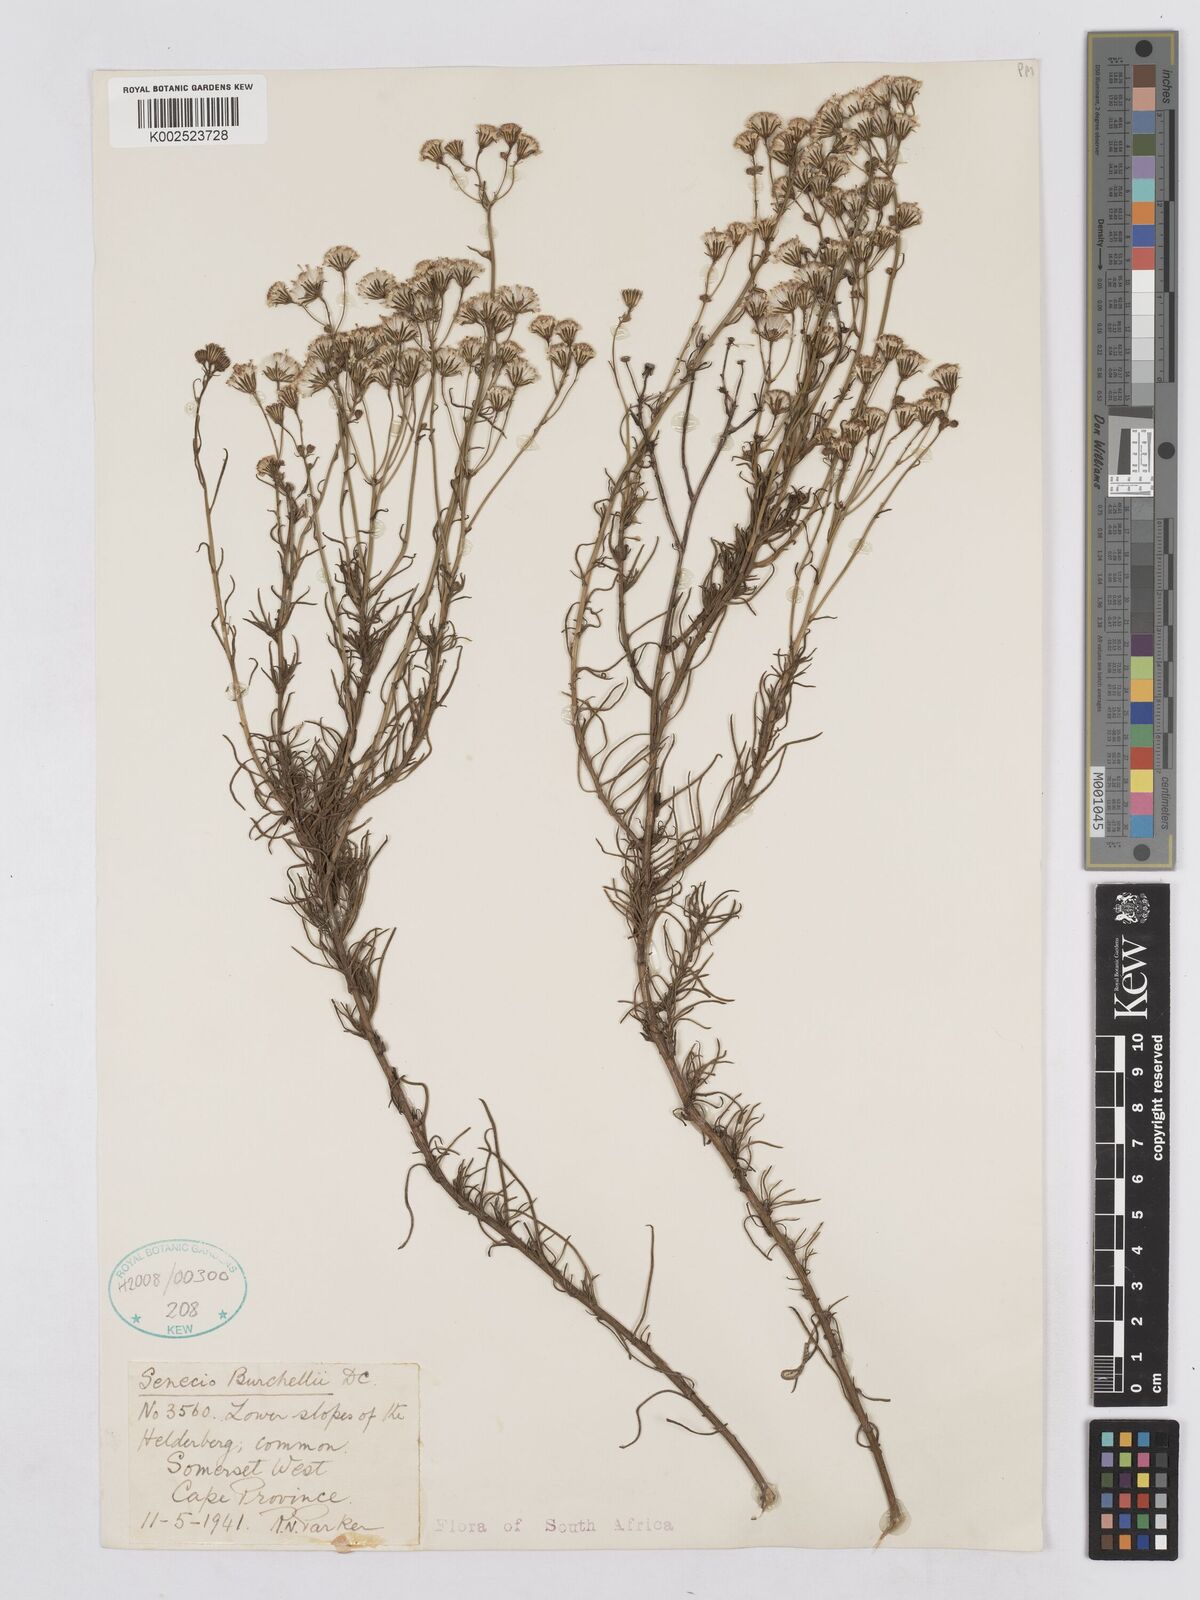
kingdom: Plantae
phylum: Tracheophyta
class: Magnoliopsida
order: Asterales
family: Asteraceae
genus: Senecio
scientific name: Senecio burchellii
